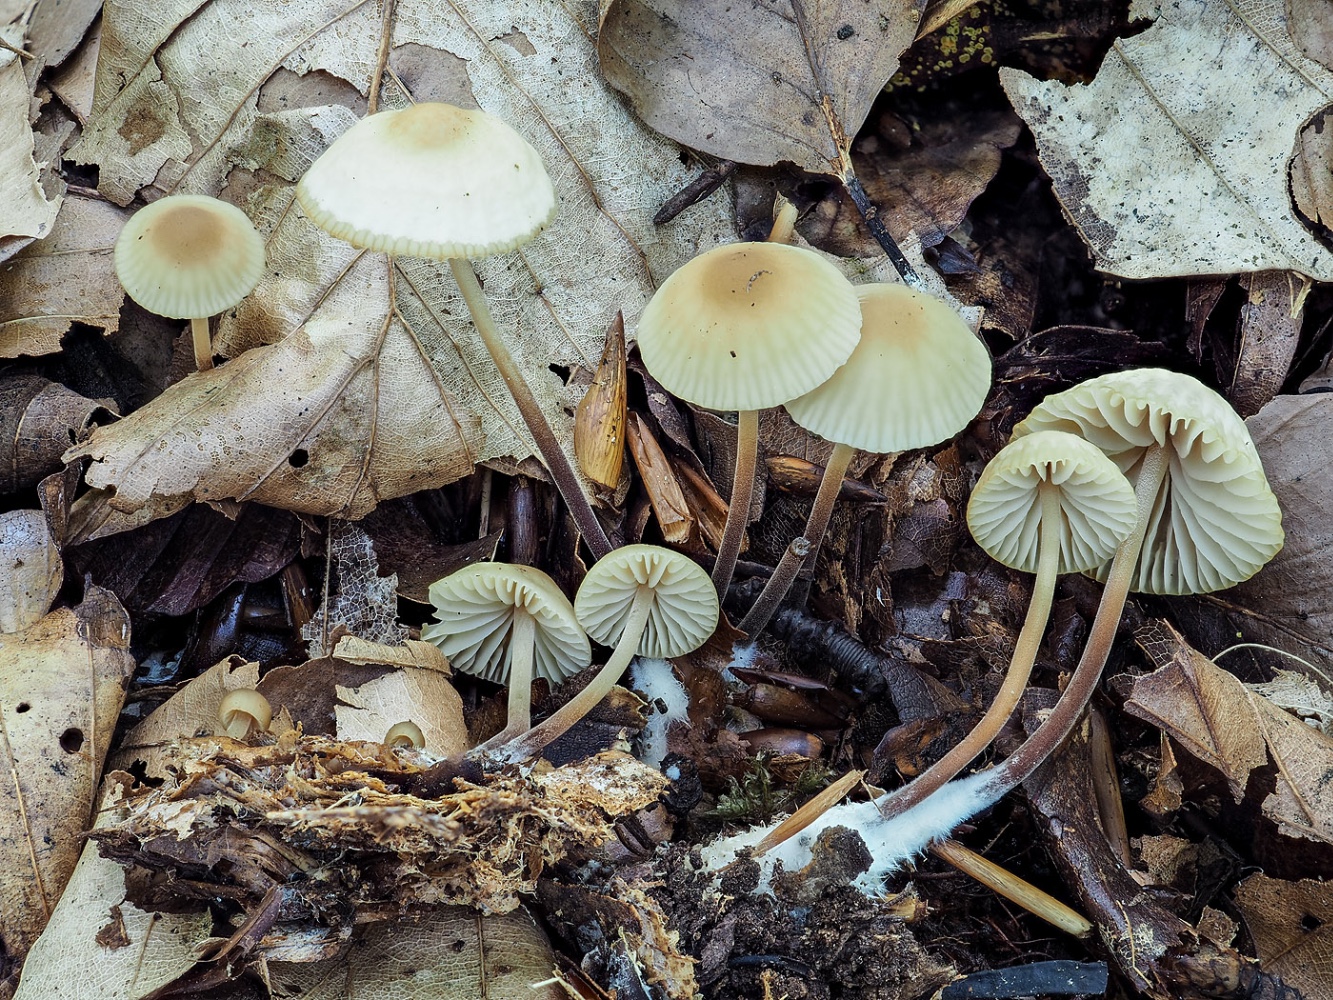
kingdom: Fungi
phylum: Basidiomycota
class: Agaricomycetes
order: Agaricales
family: Marasmiaceae
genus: Marasmius
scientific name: Marasmius torquescens
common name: filtfodet bruskhat
